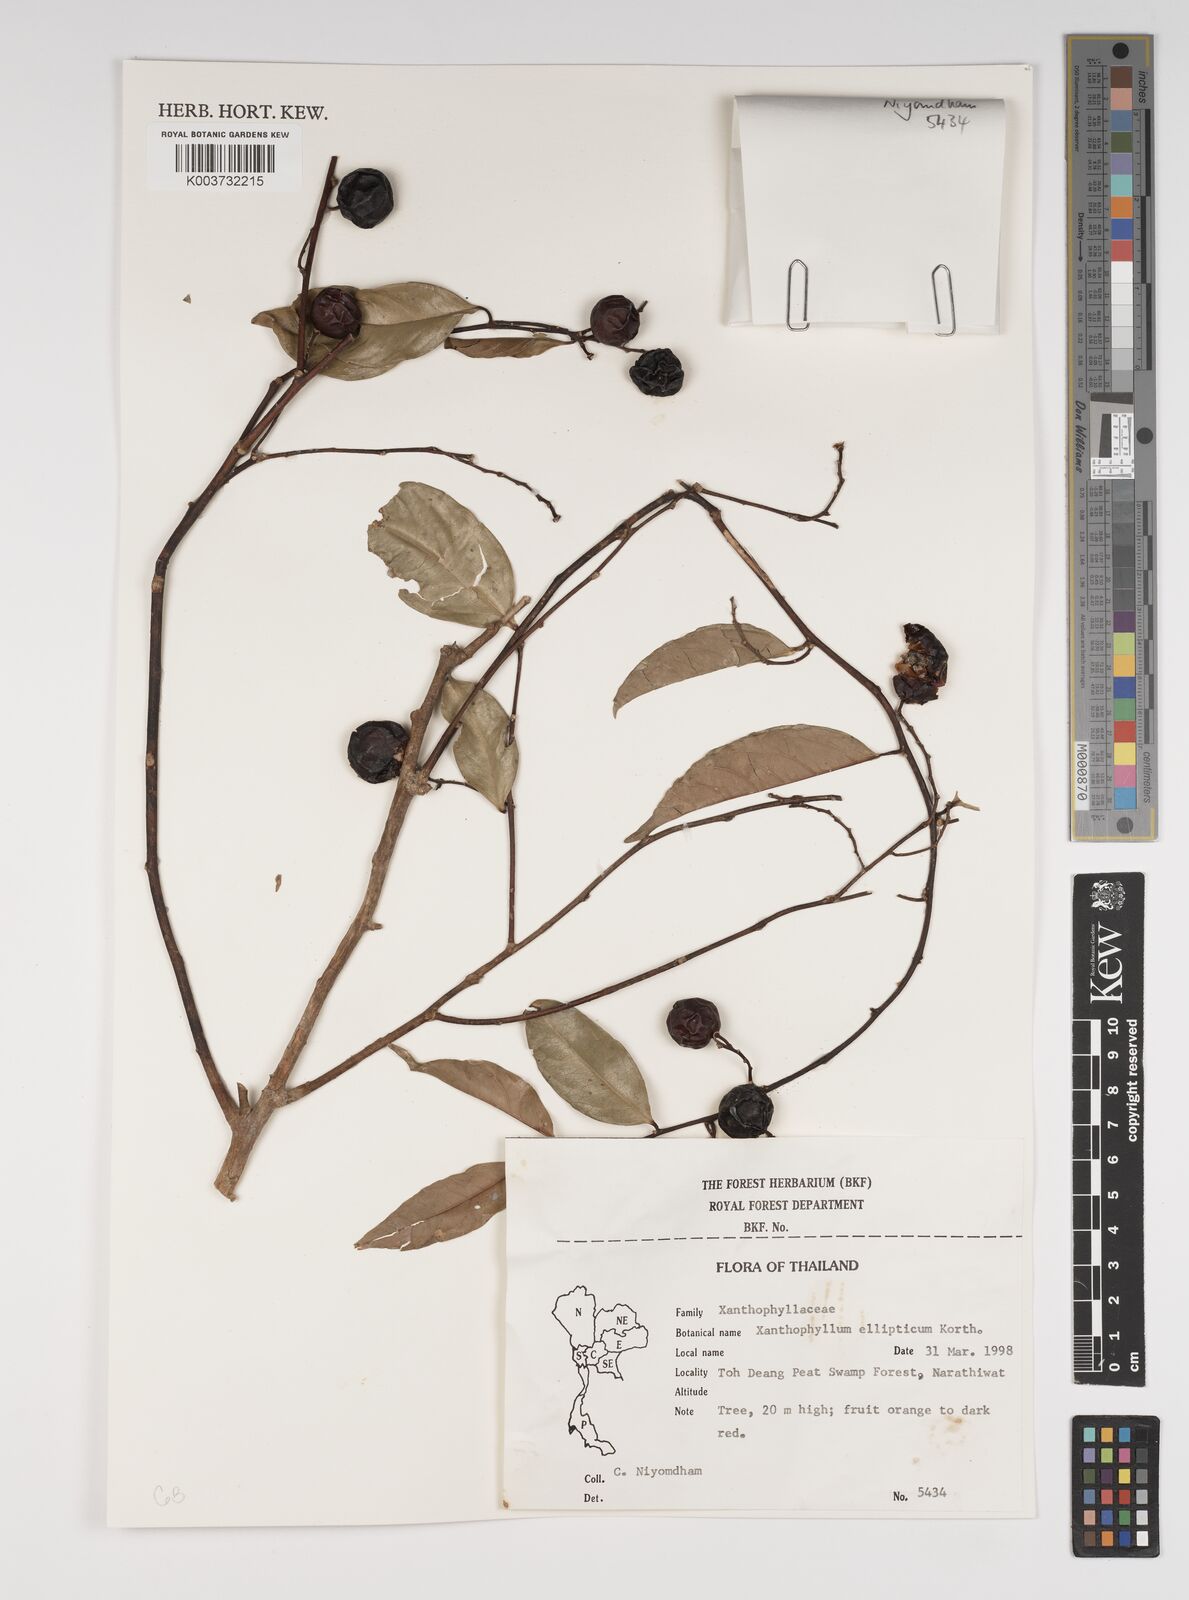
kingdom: Plantae
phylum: Tracheophyta
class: Magnoliopsida
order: Fabales
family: Polygalaceae
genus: Xanthophyllum
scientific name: Xanthophyllum ellipticum
